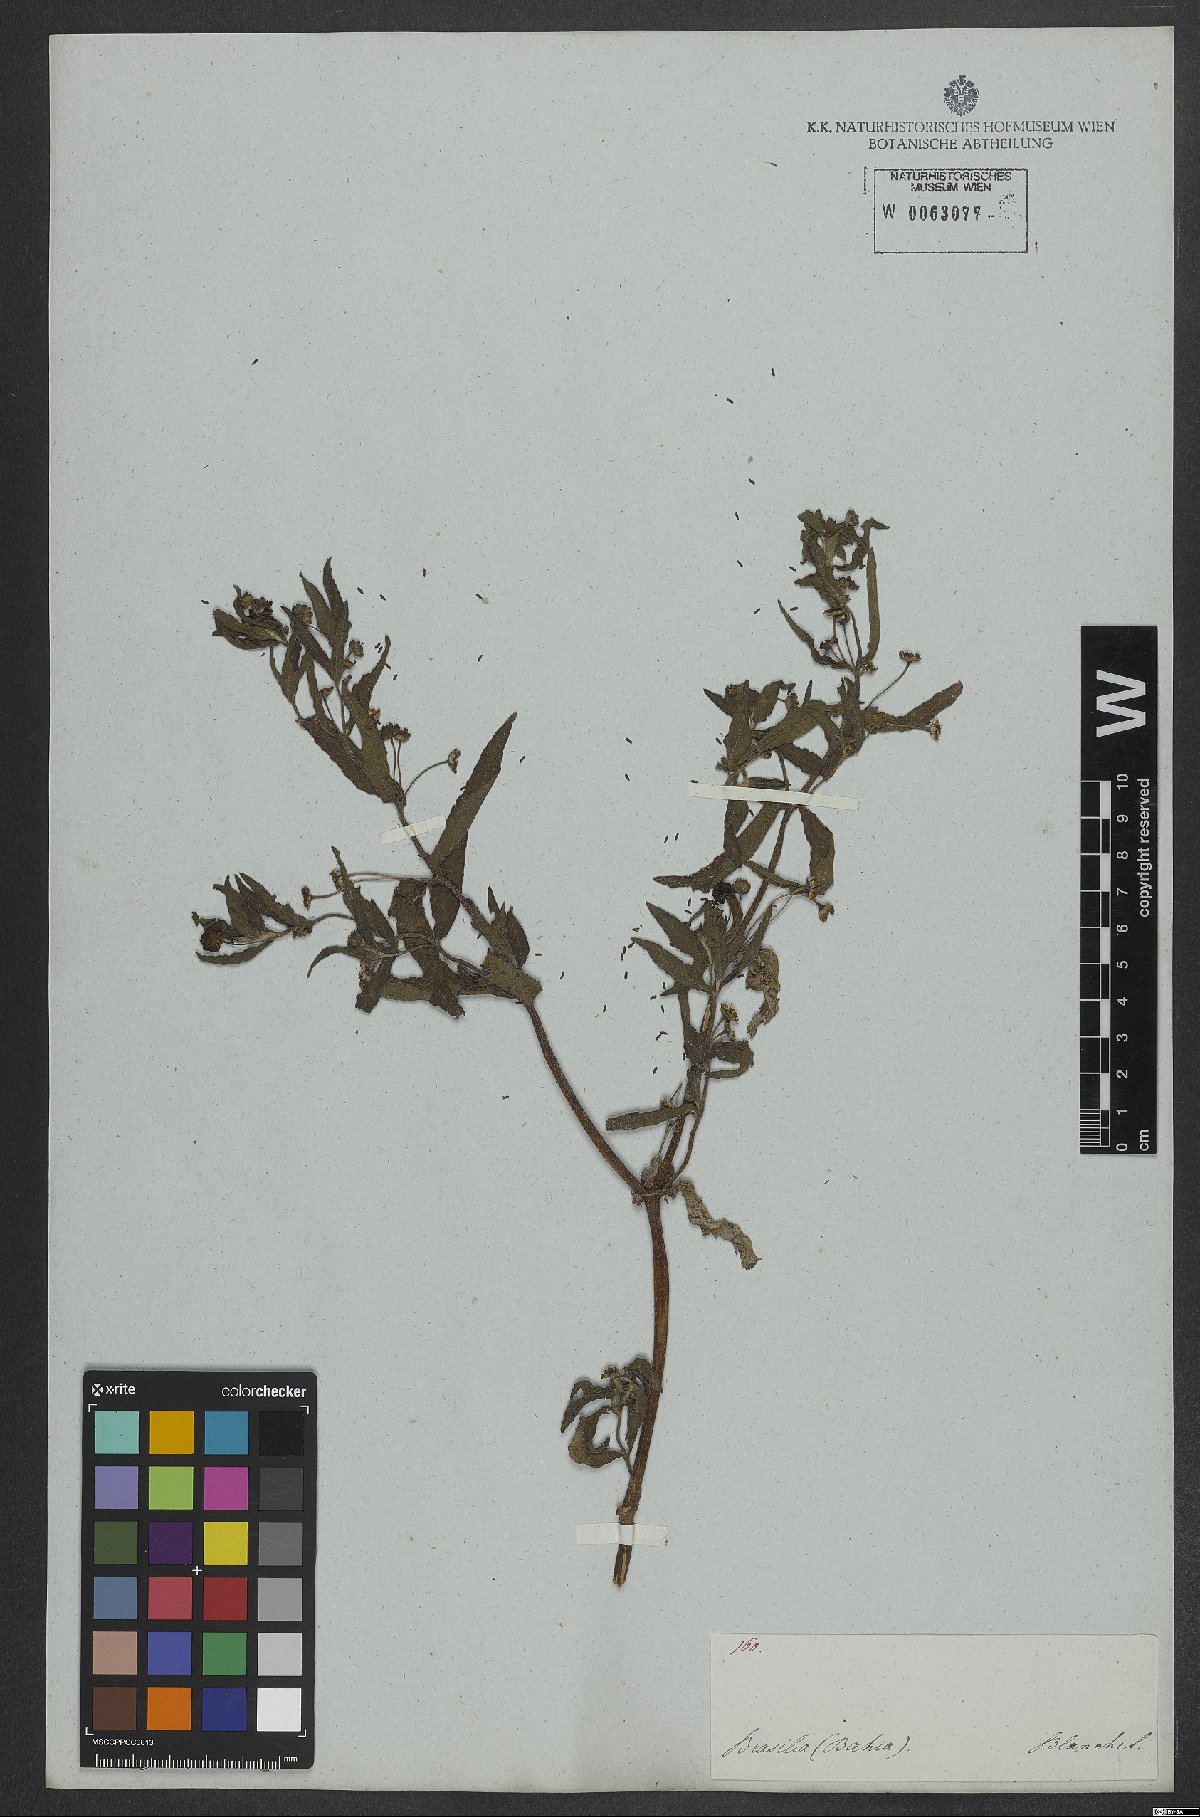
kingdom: Plantae
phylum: Tracheophyta
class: Magnoliopsida
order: Asterales
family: Asteraceae
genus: Eclipta
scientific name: Eclipta prostrata
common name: False daisy
